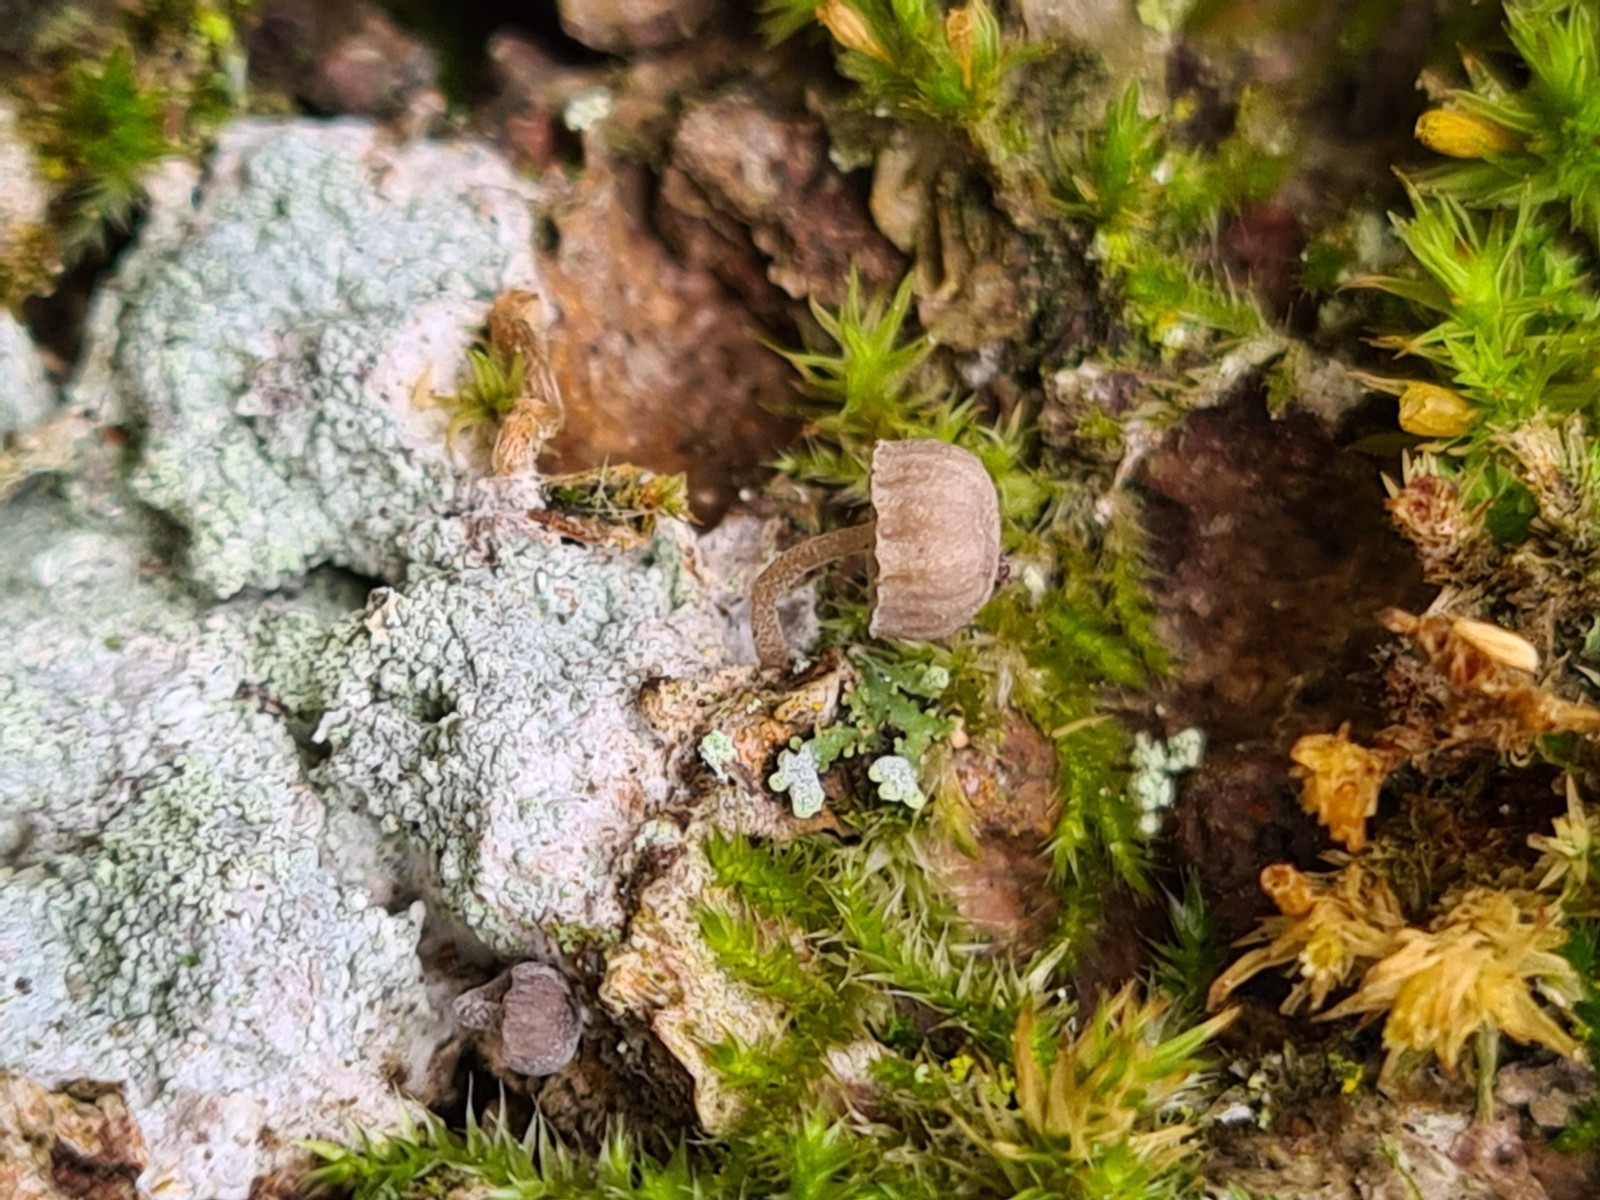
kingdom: Fungi
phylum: Basidiomycota
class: Agaricomycetes
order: Agaricales
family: Mycenaceae
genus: Mycena
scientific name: Mycena
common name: huesvamp
